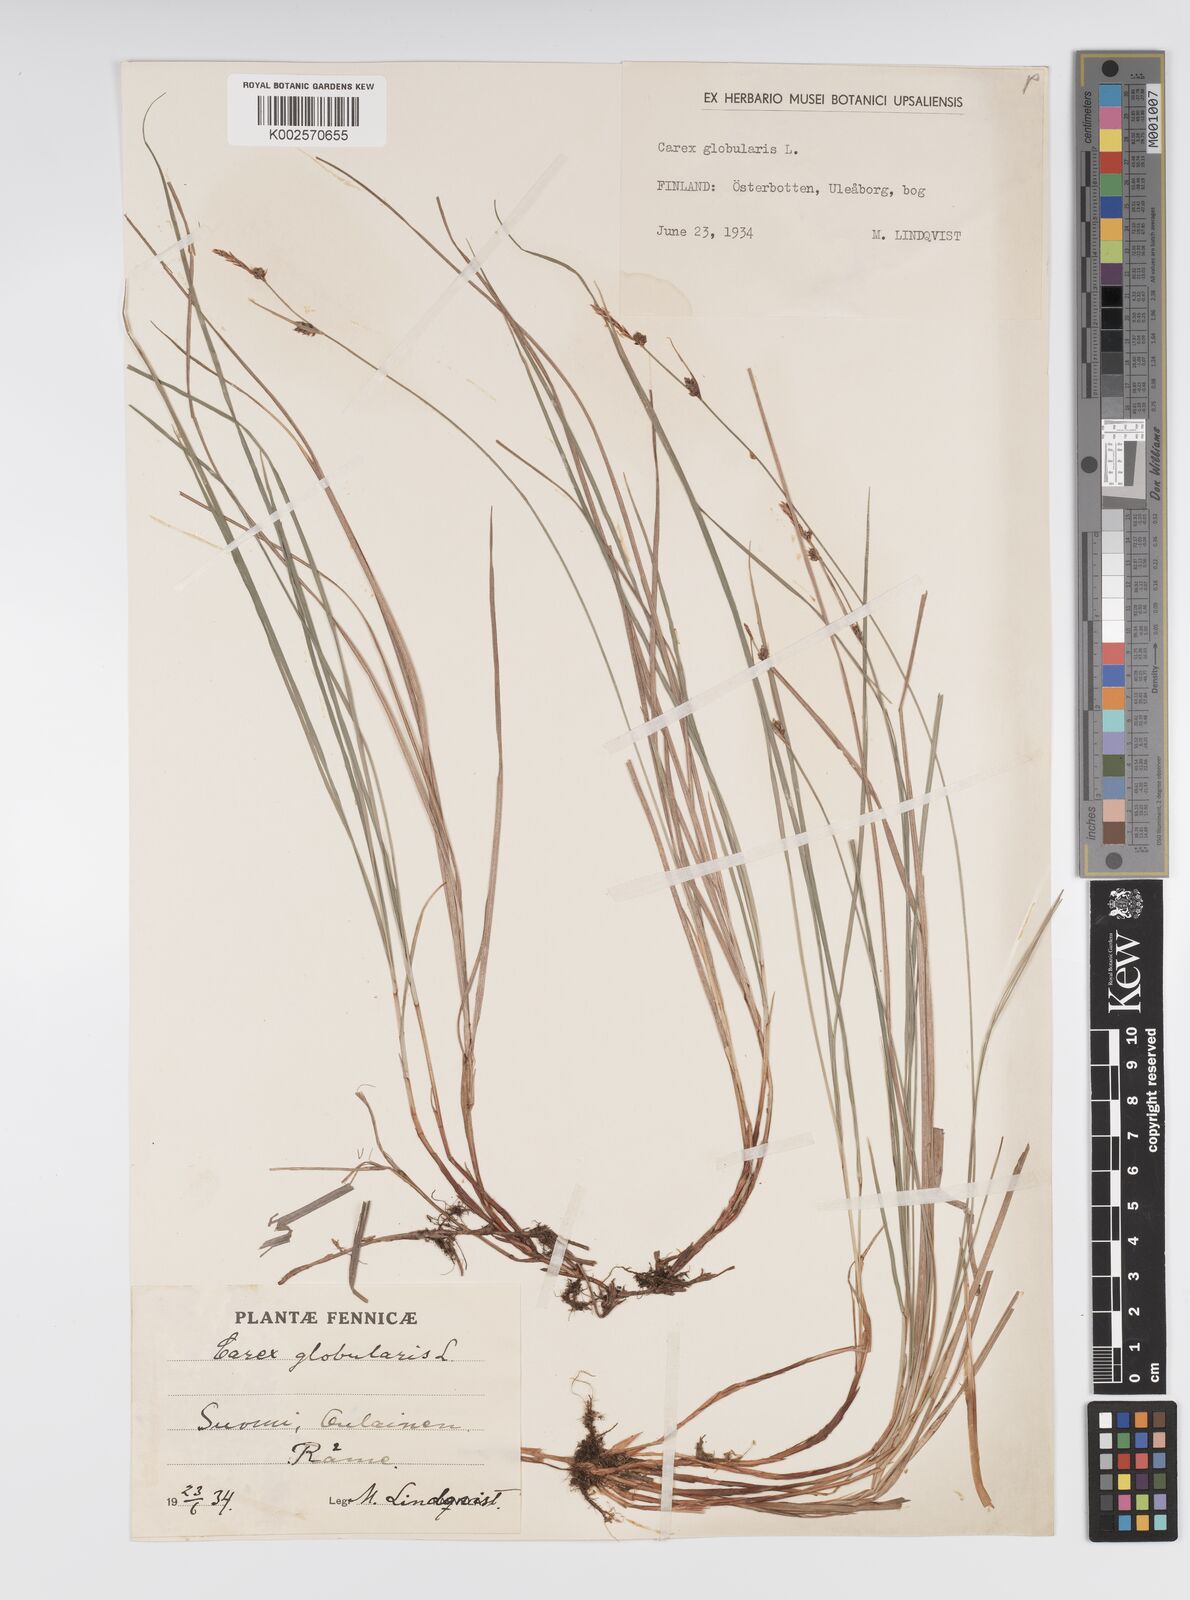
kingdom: Plantae
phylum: Tracheophyta
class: Liliopsida
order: Poales
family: Cyperaceae
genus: Carex
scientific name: Carex globularis
